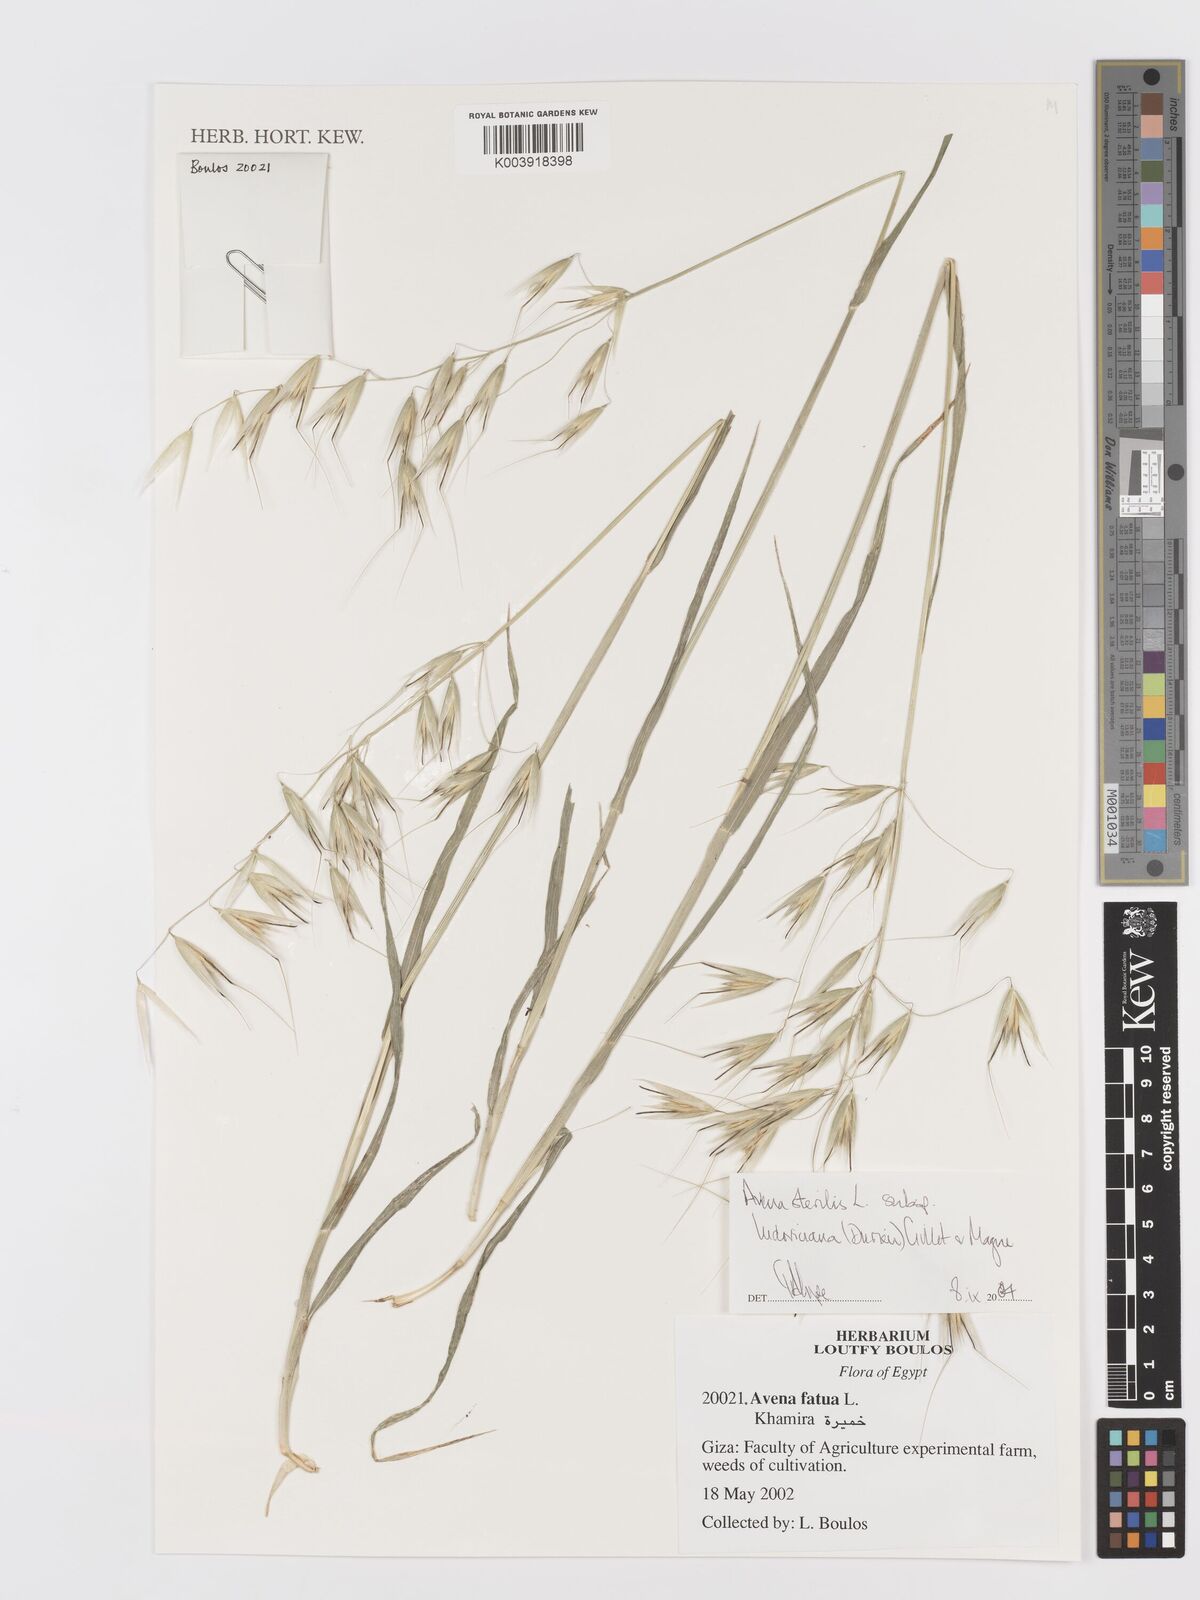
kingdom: Plantae
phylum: Tracheophyta
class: Liliopsida
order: Poales
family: Poaceae
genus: Avena
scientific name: Avena sterilis
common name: Animated oat
